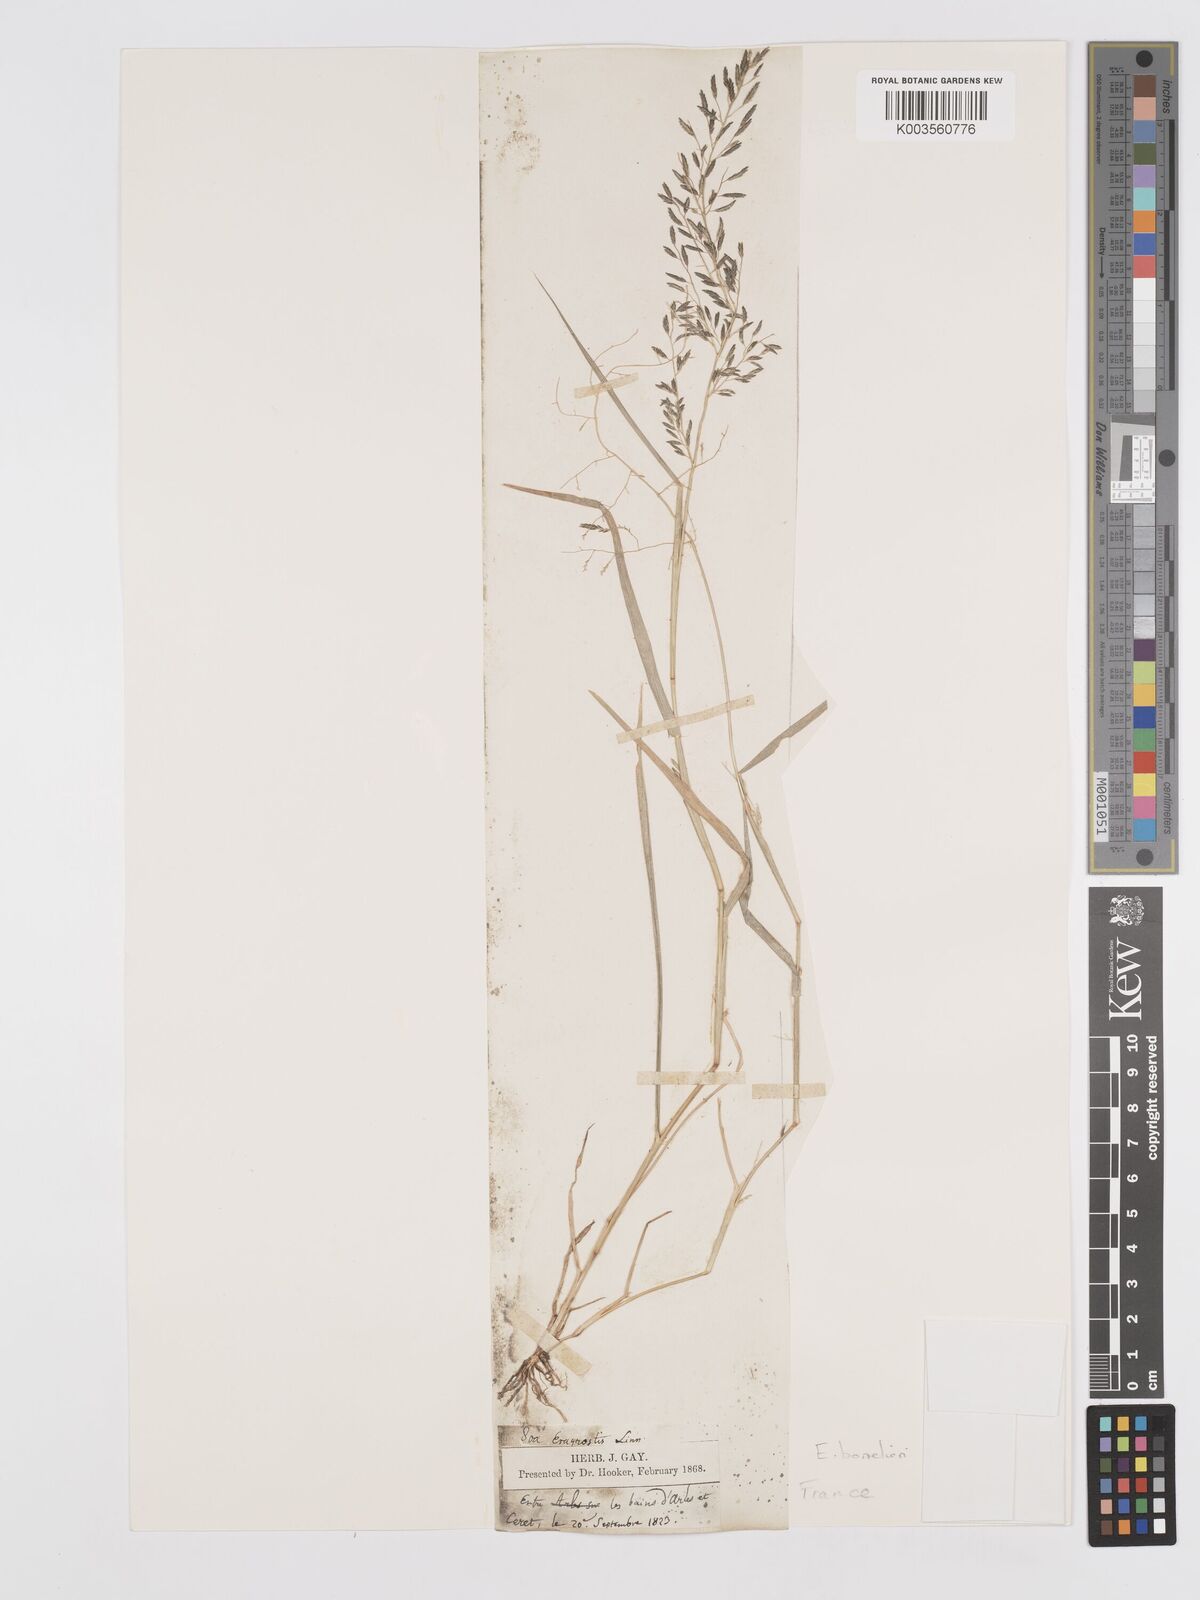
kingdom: Plantae
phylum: Tracheophyta
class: Liliopsida
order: Poales
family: Poaceae
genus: Eragrostis
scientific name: Eragrostis barrelieri
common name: Mediterranean lovegrass
